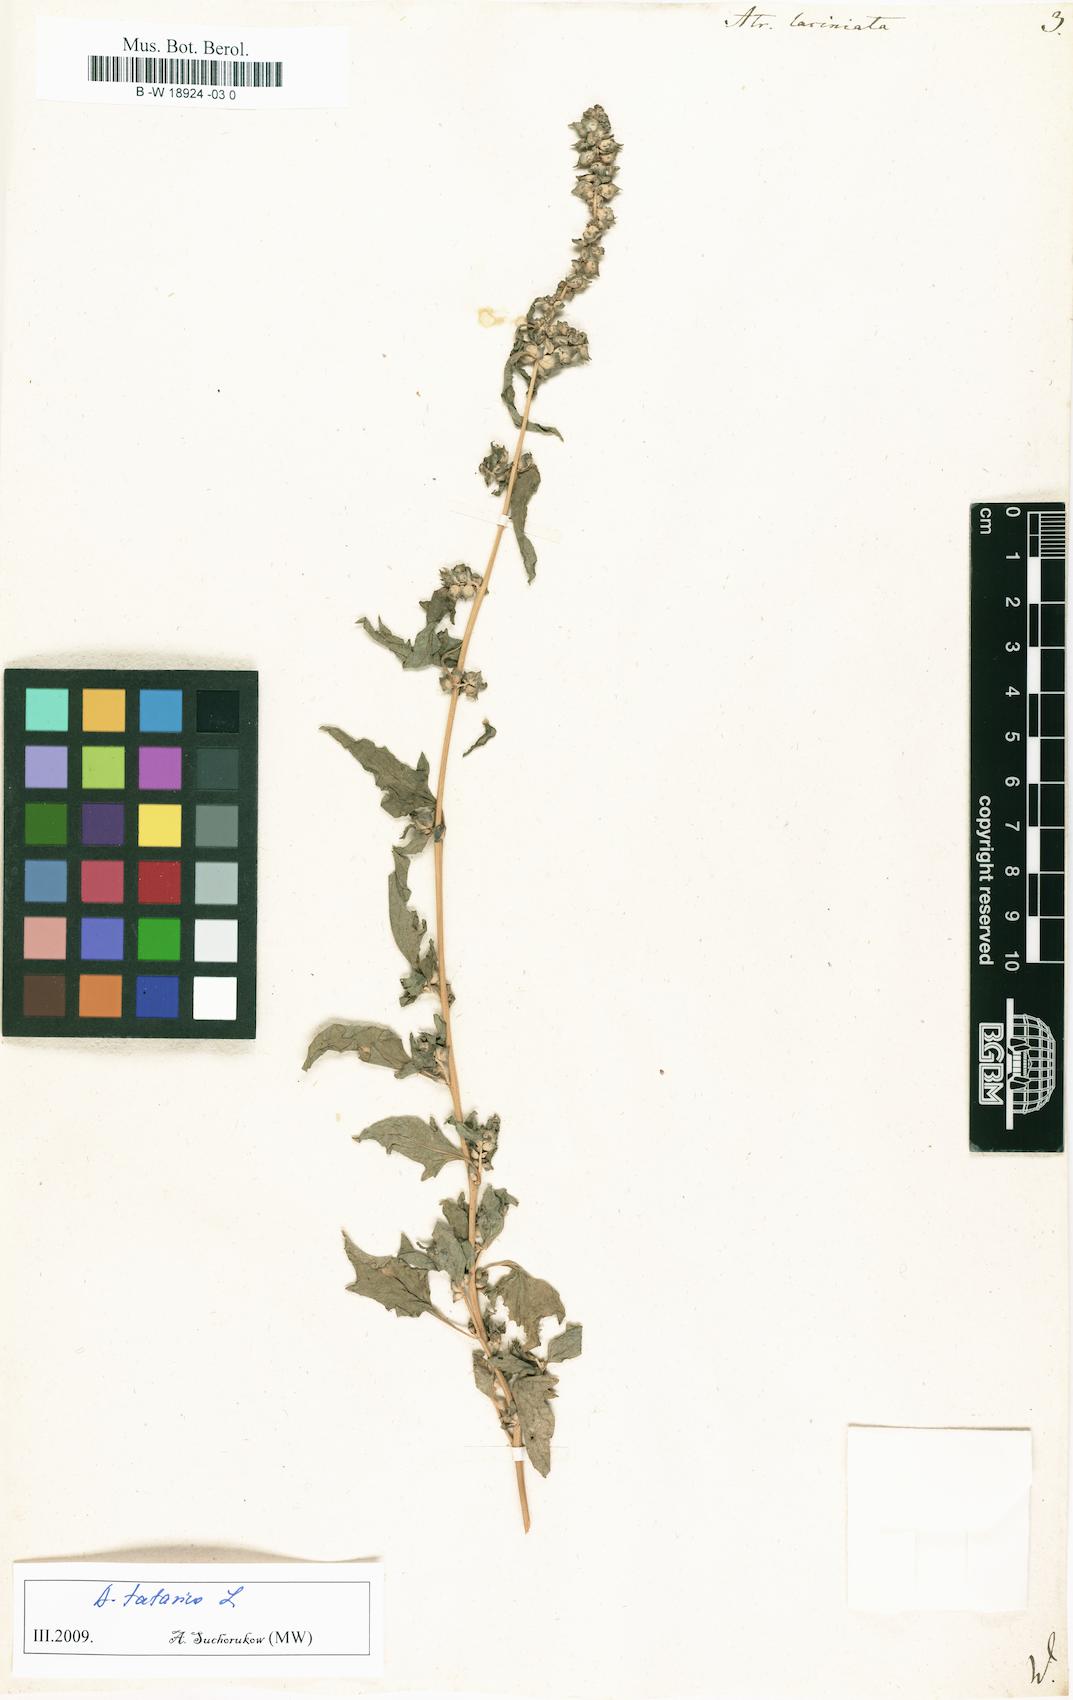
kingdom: Plantae
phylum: Tracheophyta
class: Magnoliopsida
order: Caryophyllales
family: Amaranthaceae
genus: Atriplex
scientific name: Atriplex laciniata
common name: Frosted orache
